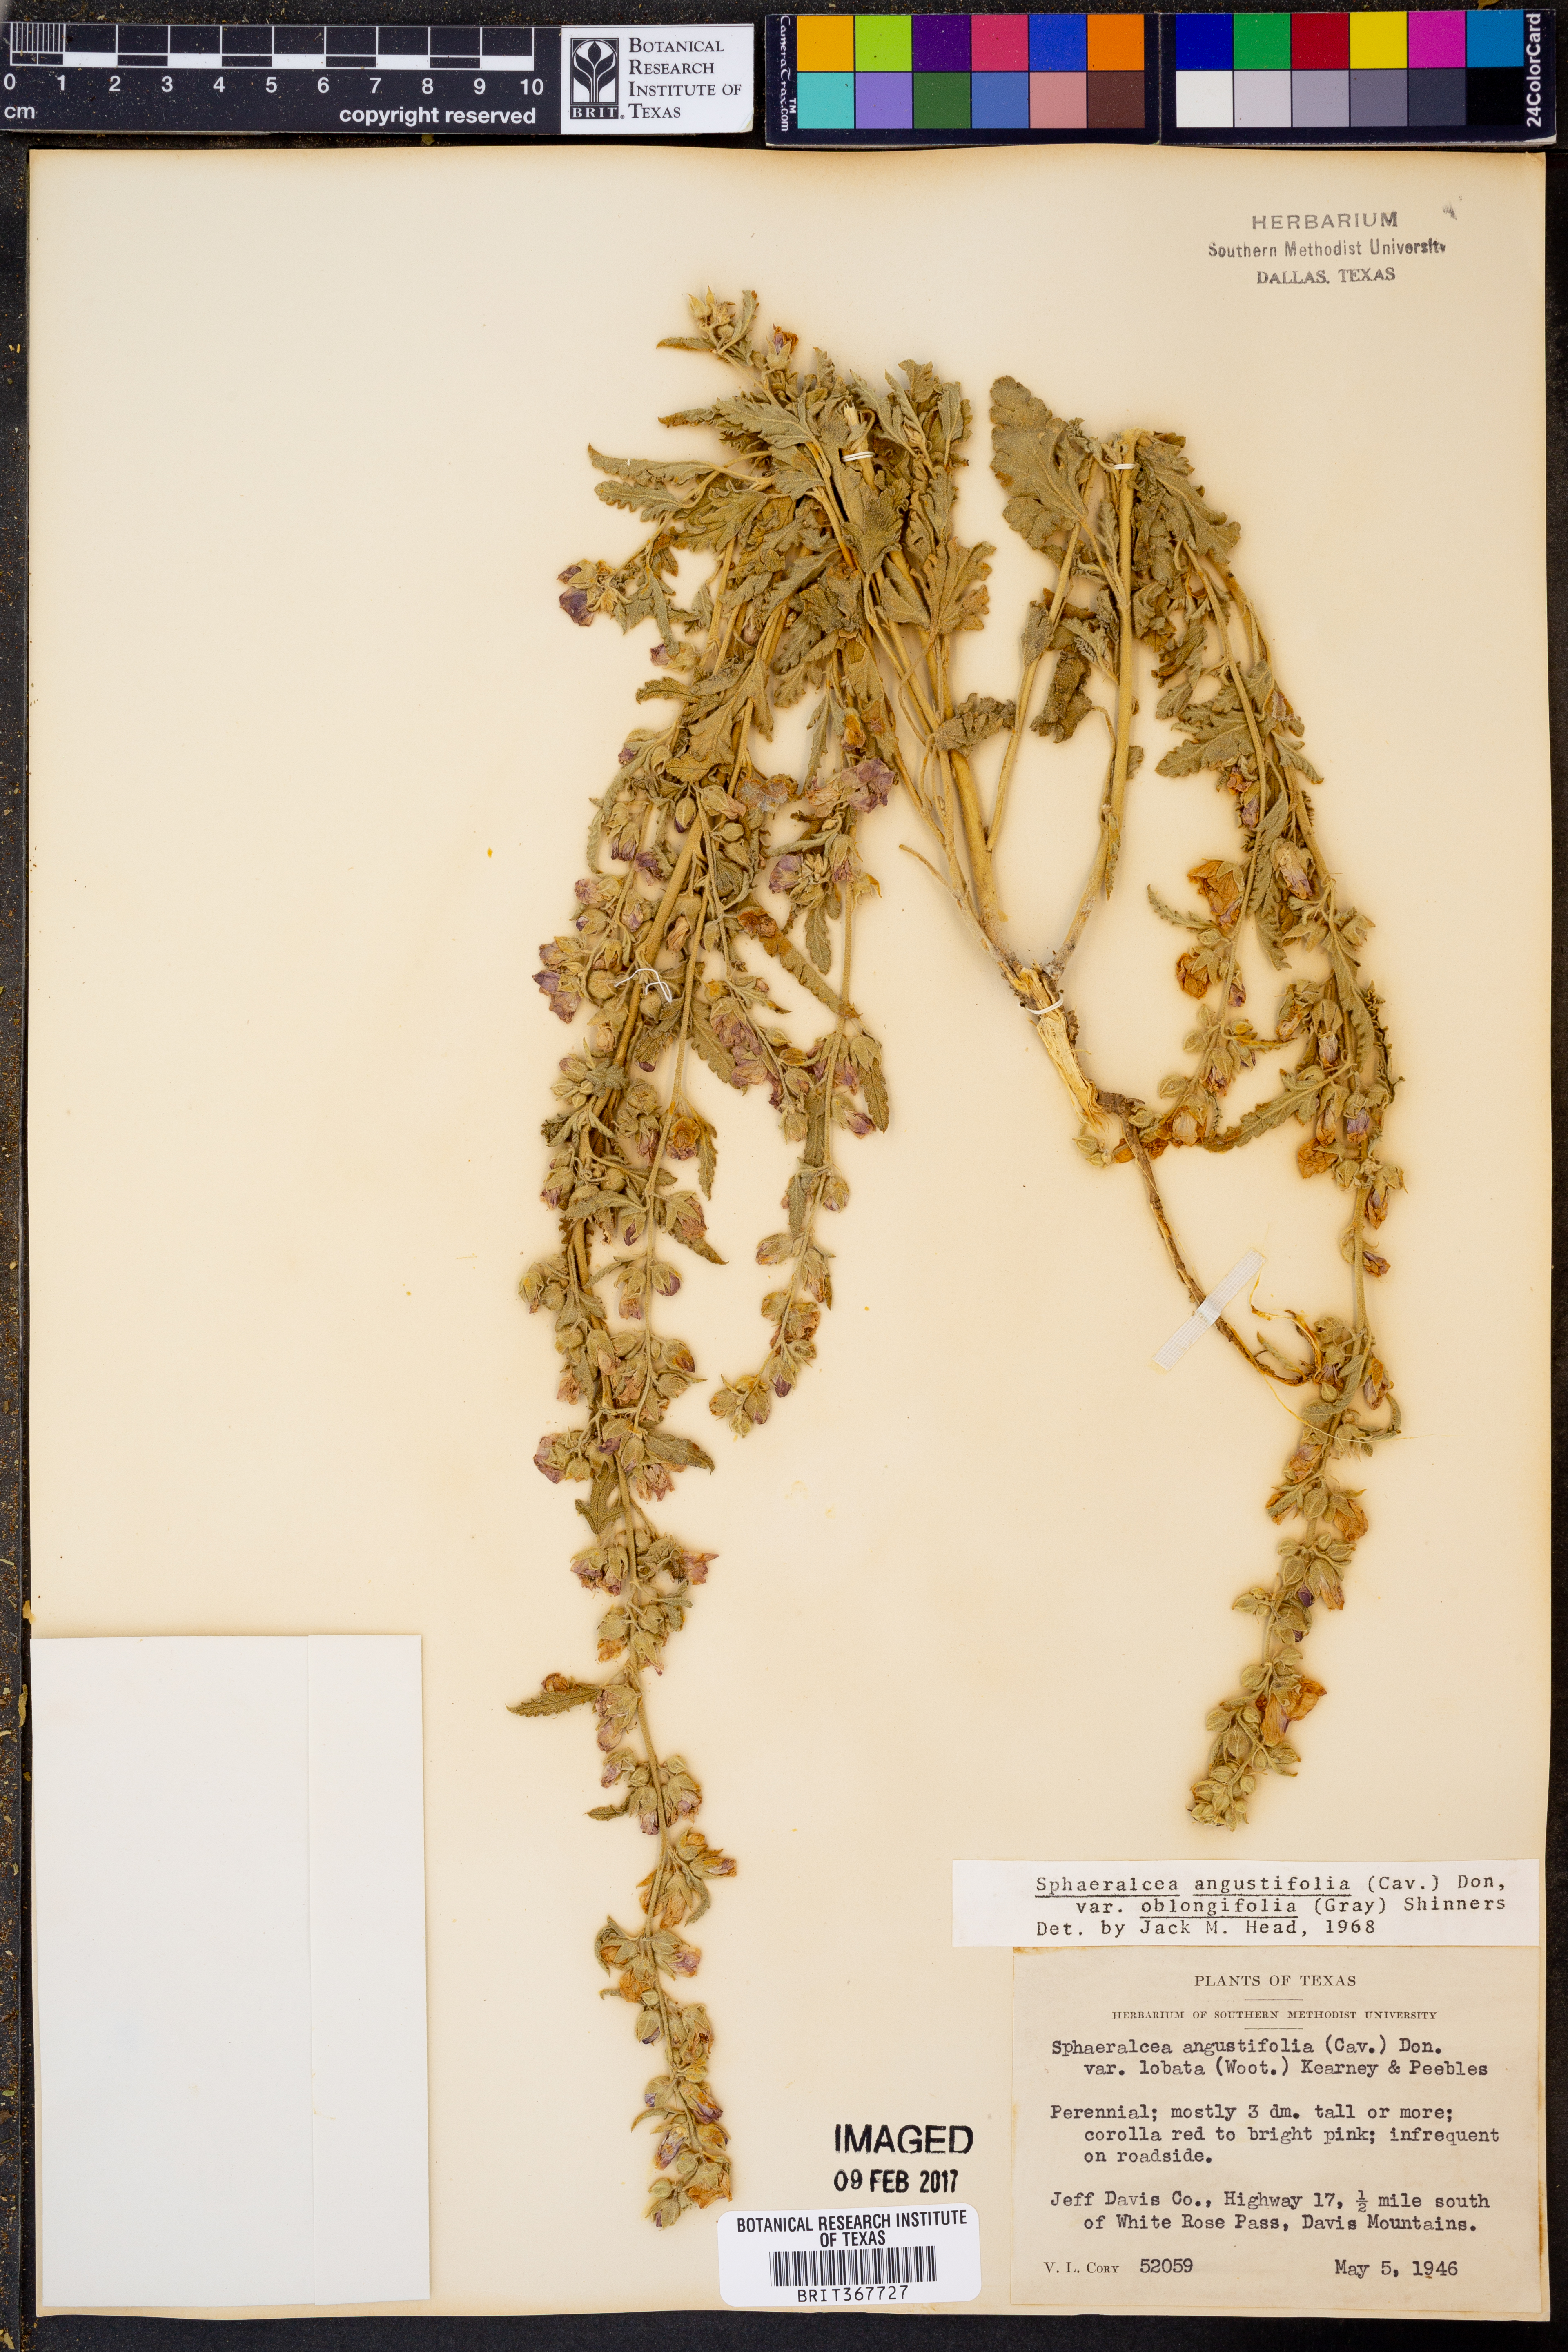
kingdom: Plantae
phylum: Tracheophyta
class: Magnoliopsida
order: Malvales
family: Malvaceae
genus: Sphaeralcea
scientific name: Sphaeralcea angustifolia
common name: Copper globe-mallow
